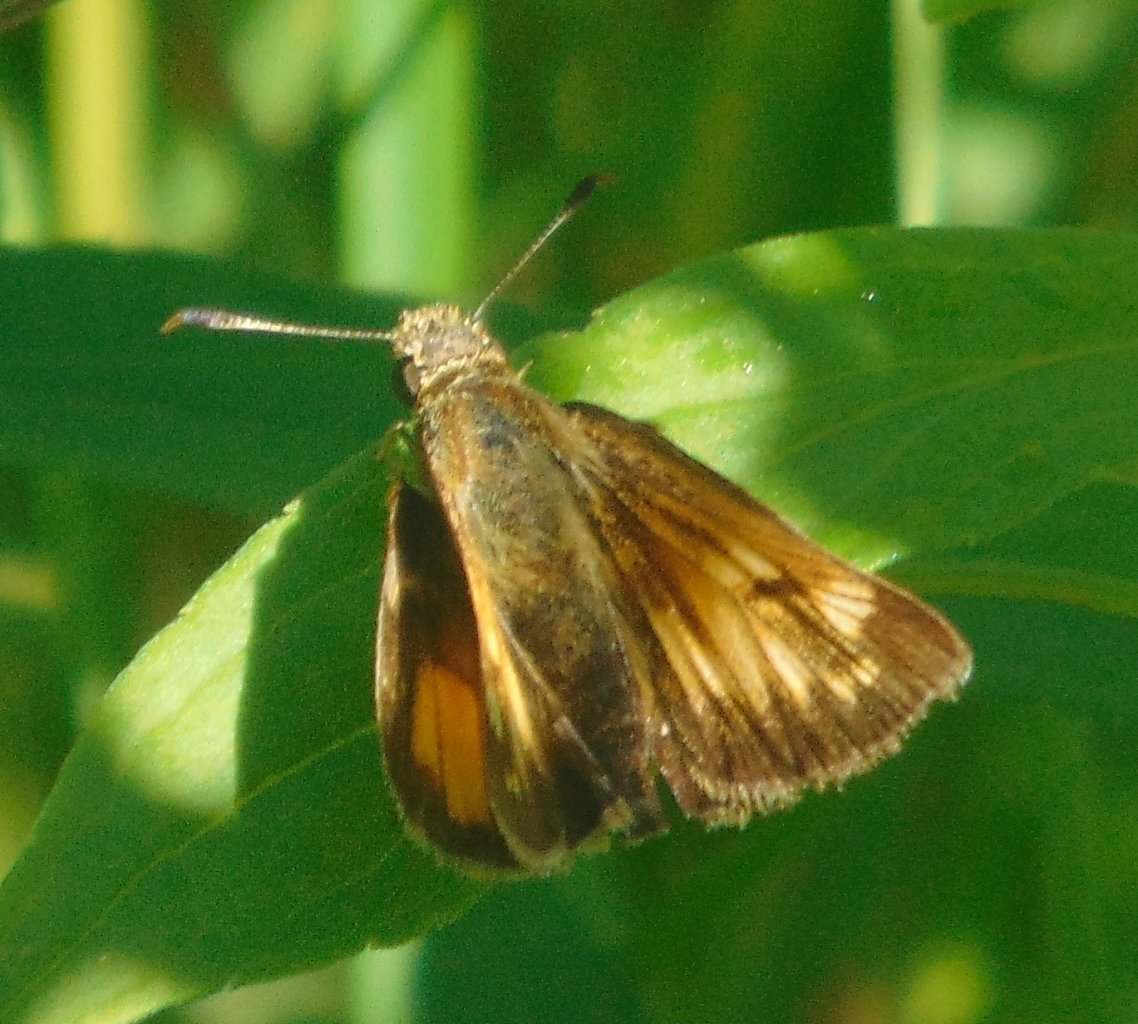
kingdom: Animalia
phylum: Arthropoda
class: Insecta
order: Lepidoptera
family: Hesperiidae
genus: Lon
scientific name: Lon hobomok
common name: Hobomok Skipper
